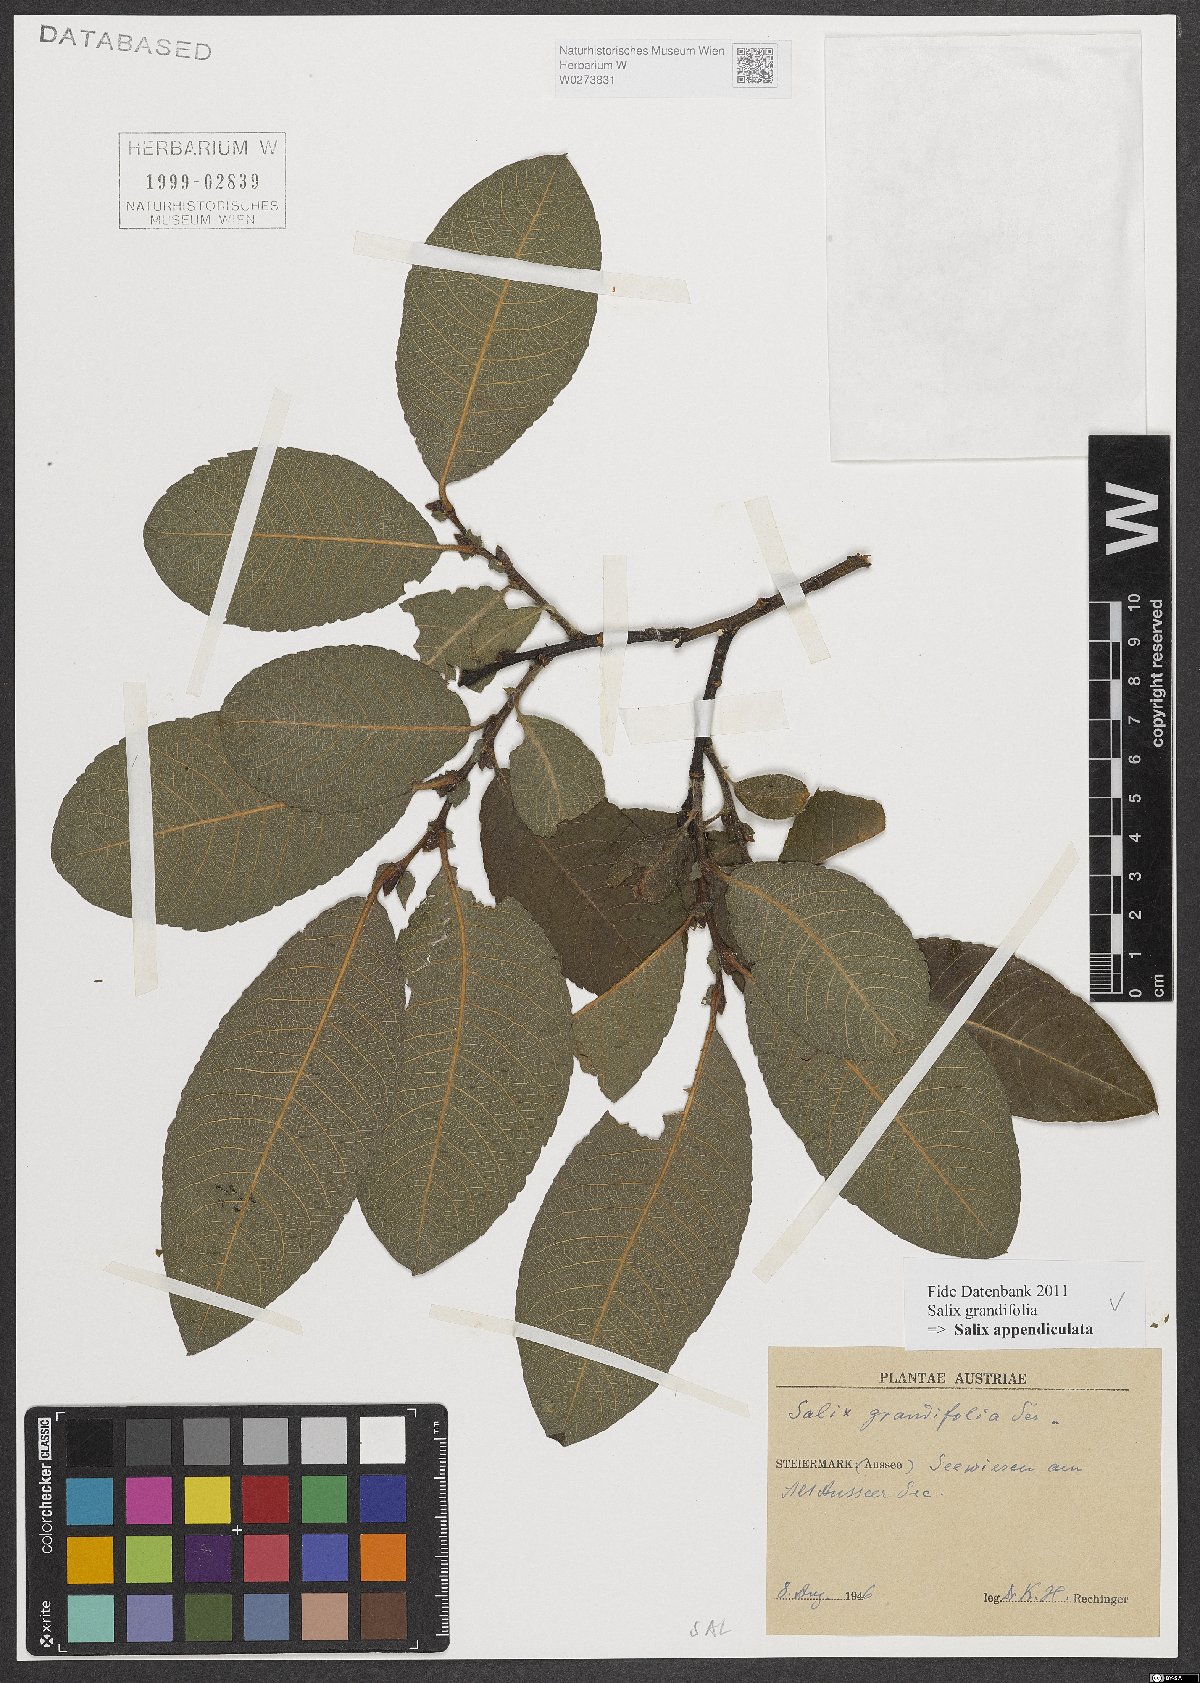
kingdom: Plantae
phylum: Tracheophyta
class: Magnoliopsida
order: Malpighiales
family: Salicaceae
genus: Salix
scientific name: Salix appendiculata
